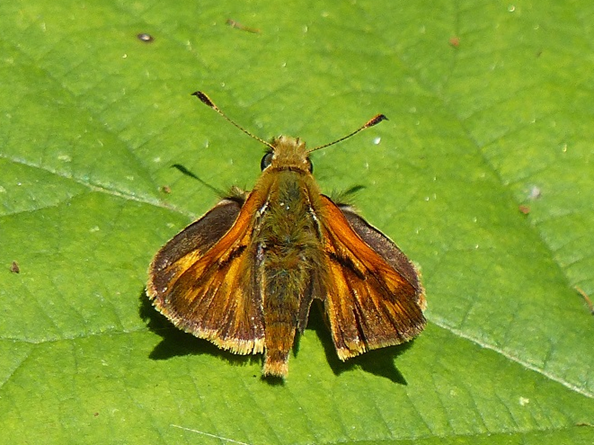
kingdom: Animalia
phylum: Arthropoda
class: Insecta
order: Lepidoptera
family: Hesperiidae
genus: Ochlodes
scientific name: Ochlodes sylvanoides
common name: Woodland Skipper
